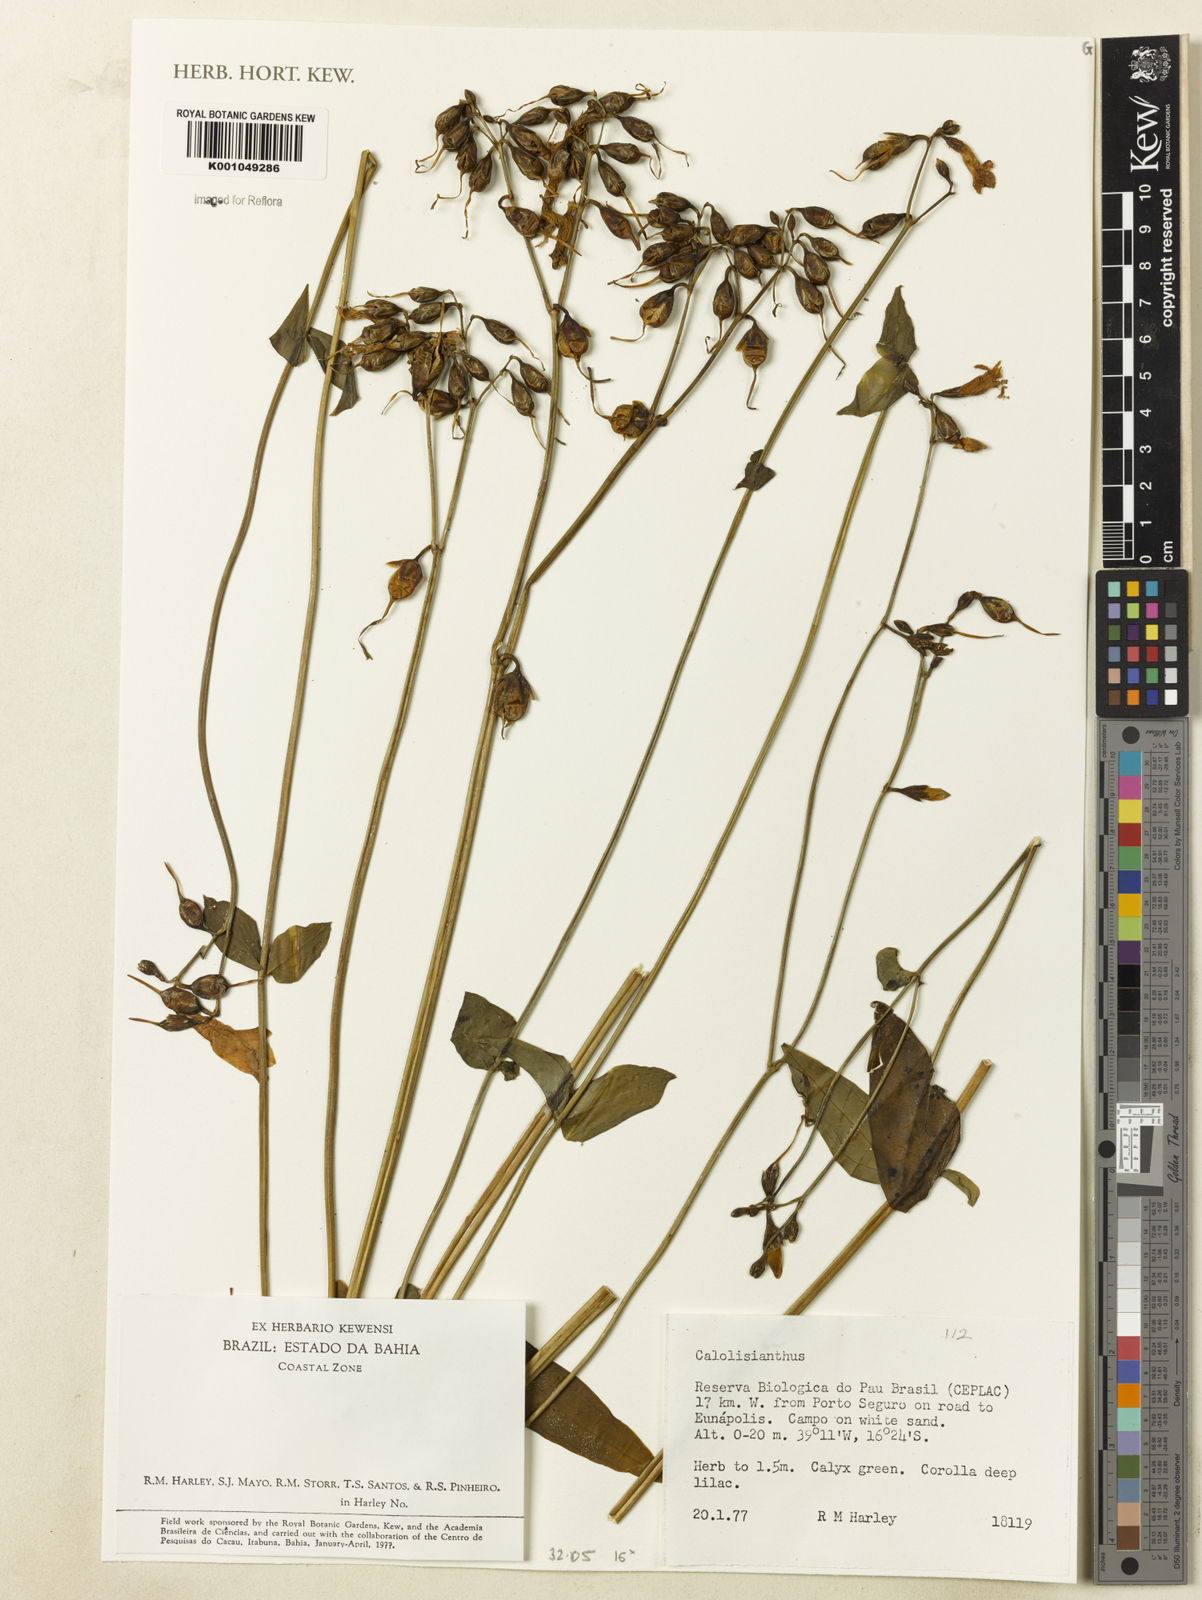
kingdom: Plantae
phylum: Tracheophyta
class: Magnoliopsida
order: Gentianales
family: Gentianaceae
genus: Calolisianthus
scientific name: Calolisianthus
